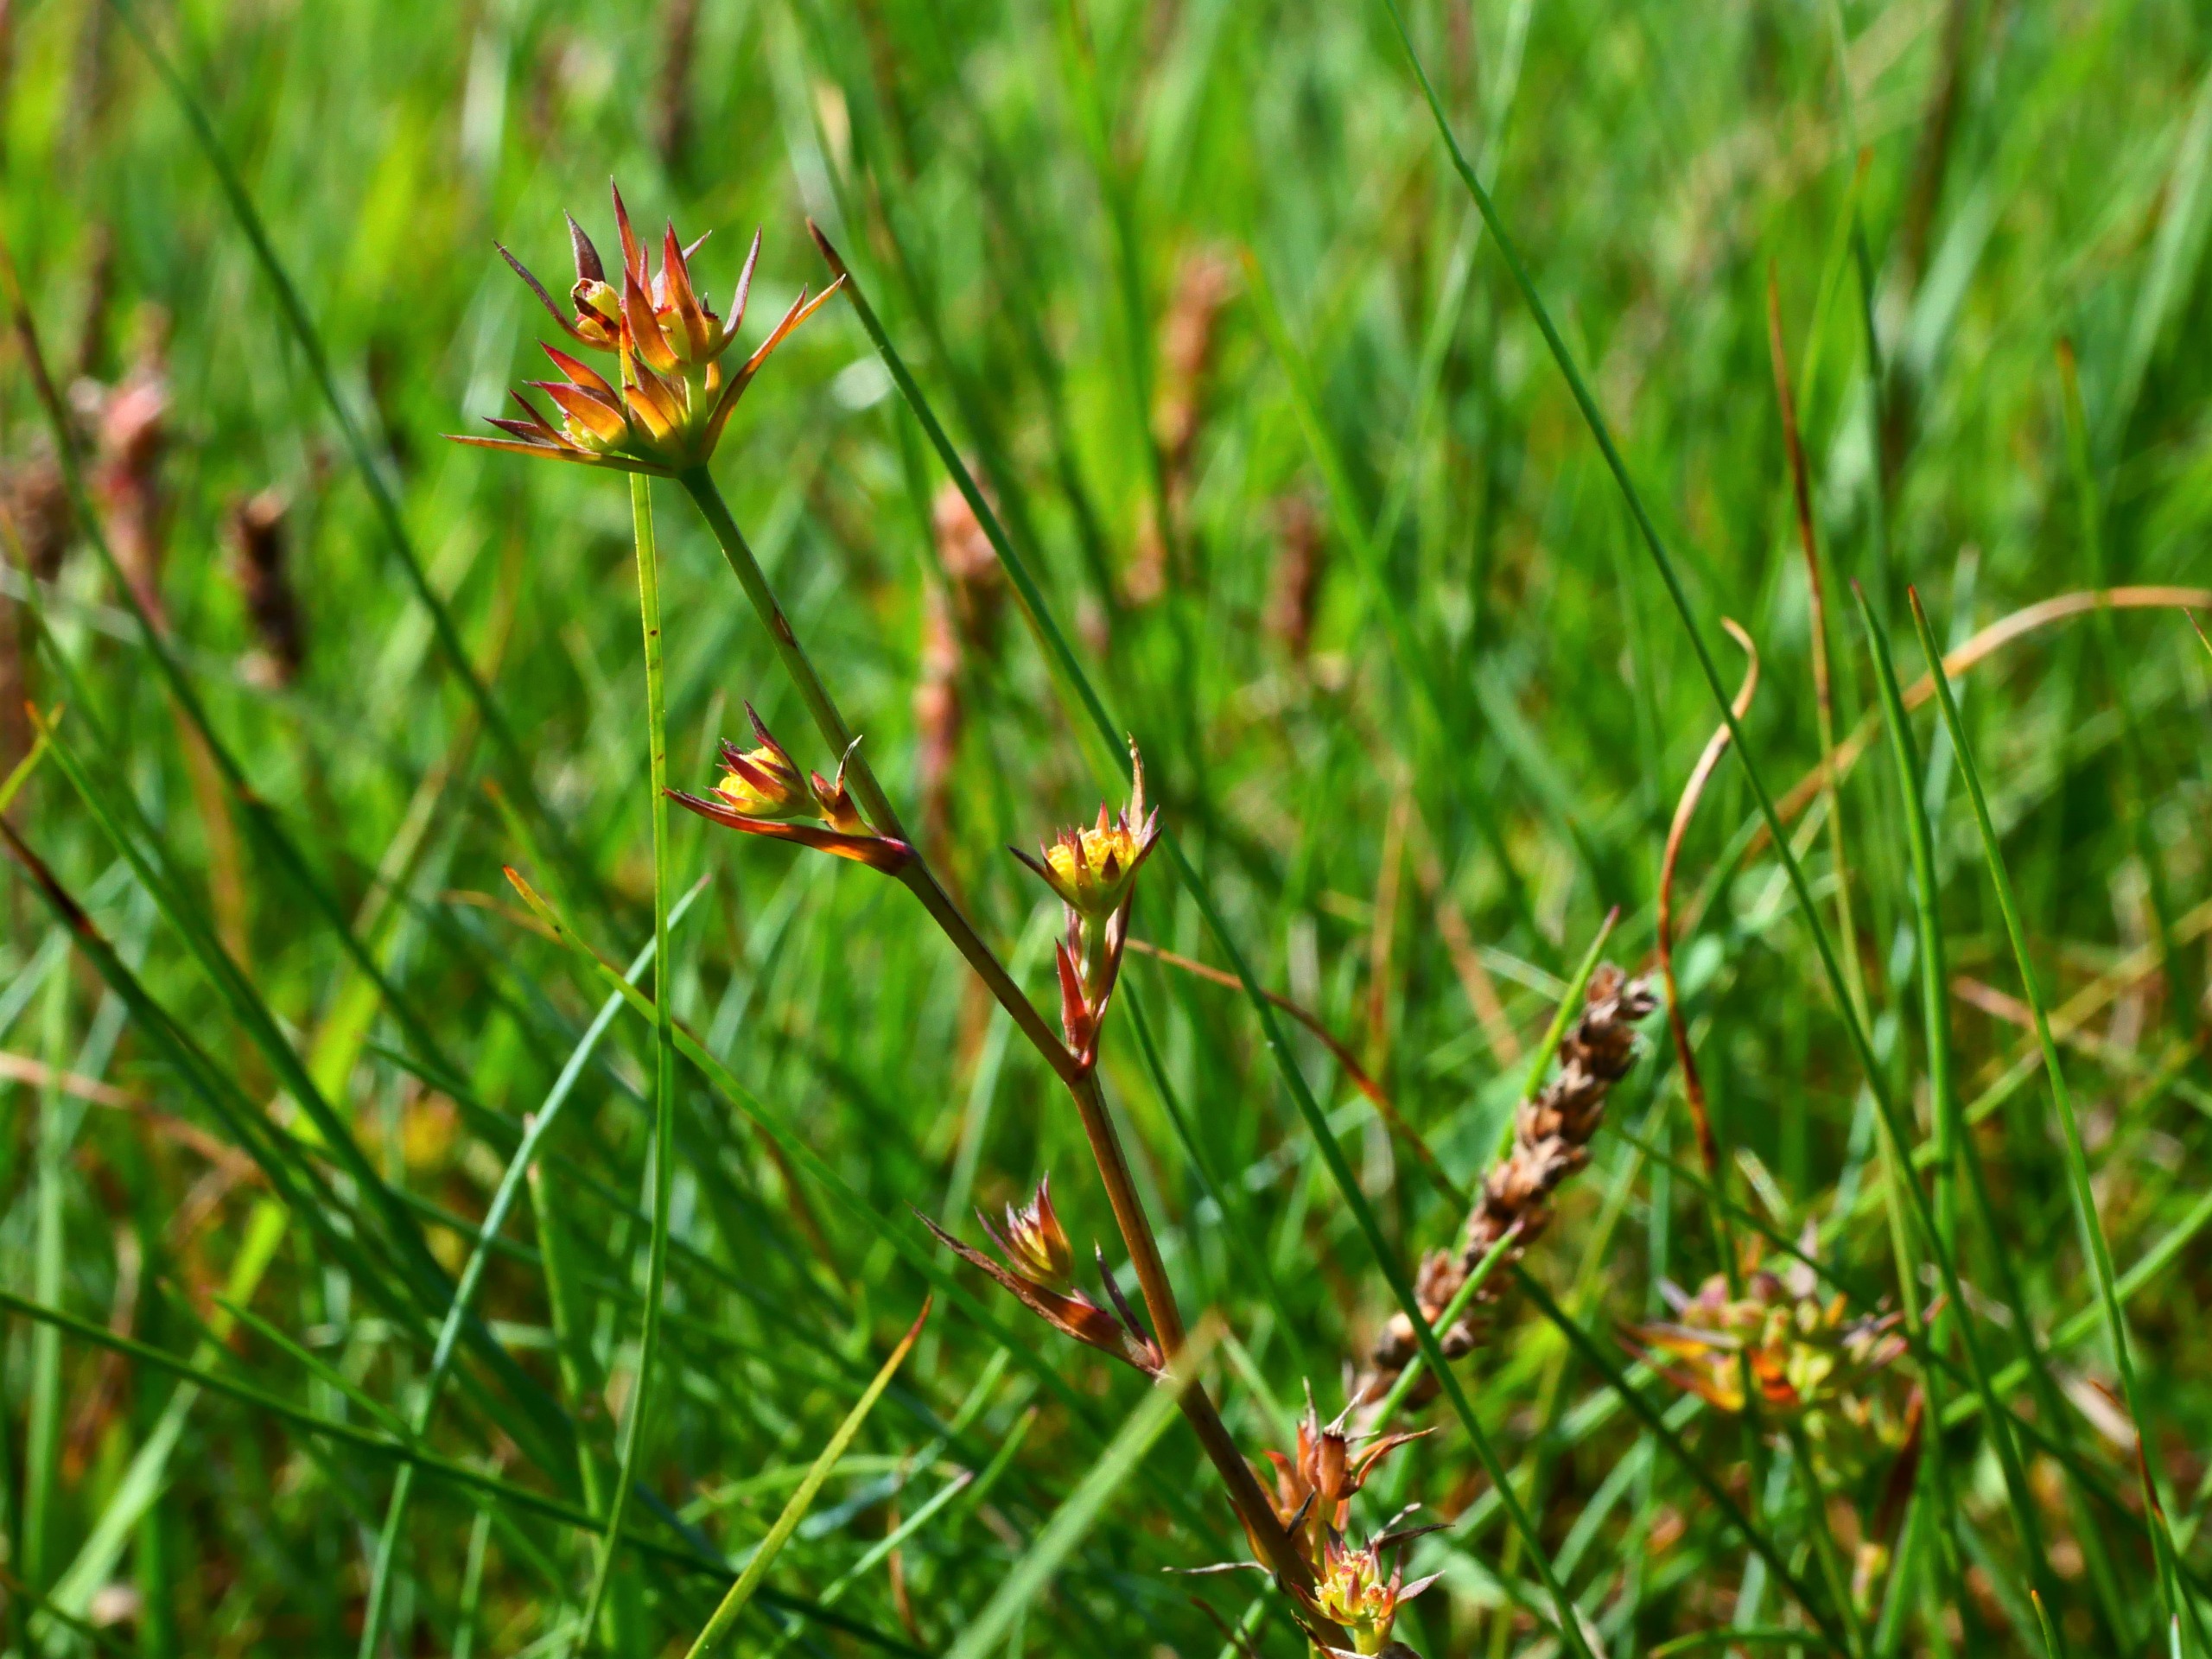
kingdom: Plantae
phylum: Tracheophyta
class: Magnoliopsida
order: Apiales
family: Apiaceae
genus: Bupleurum
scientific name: Bupleurum tenuissimum
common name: Smalbladet hareøre
